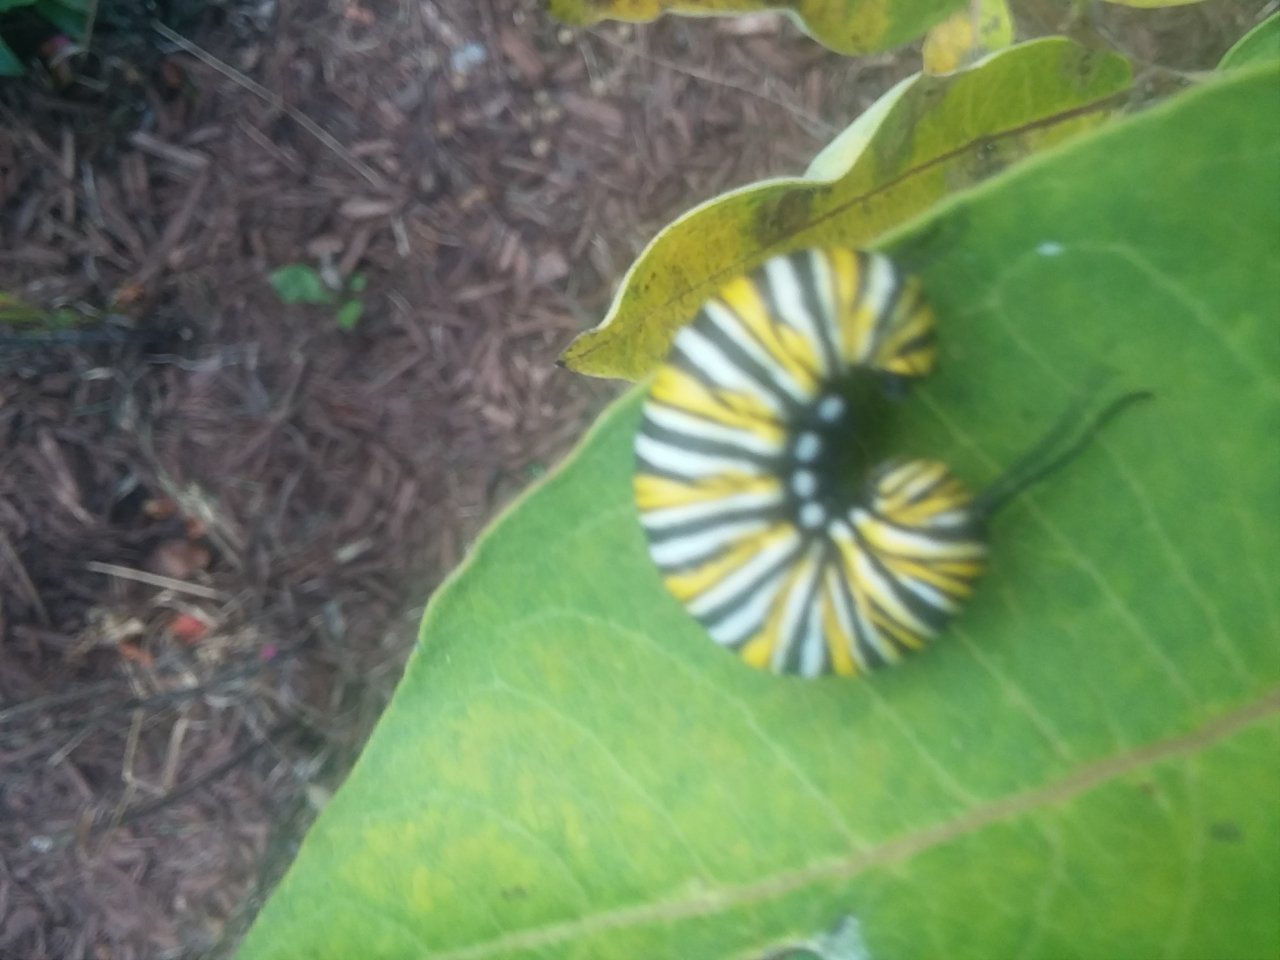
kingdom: Animalia
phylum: Arthropoda
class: Insecta
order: Lepidoptera
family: Nymphalidae
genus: Danaus
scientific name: Danaus plexippus
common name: Monarch
